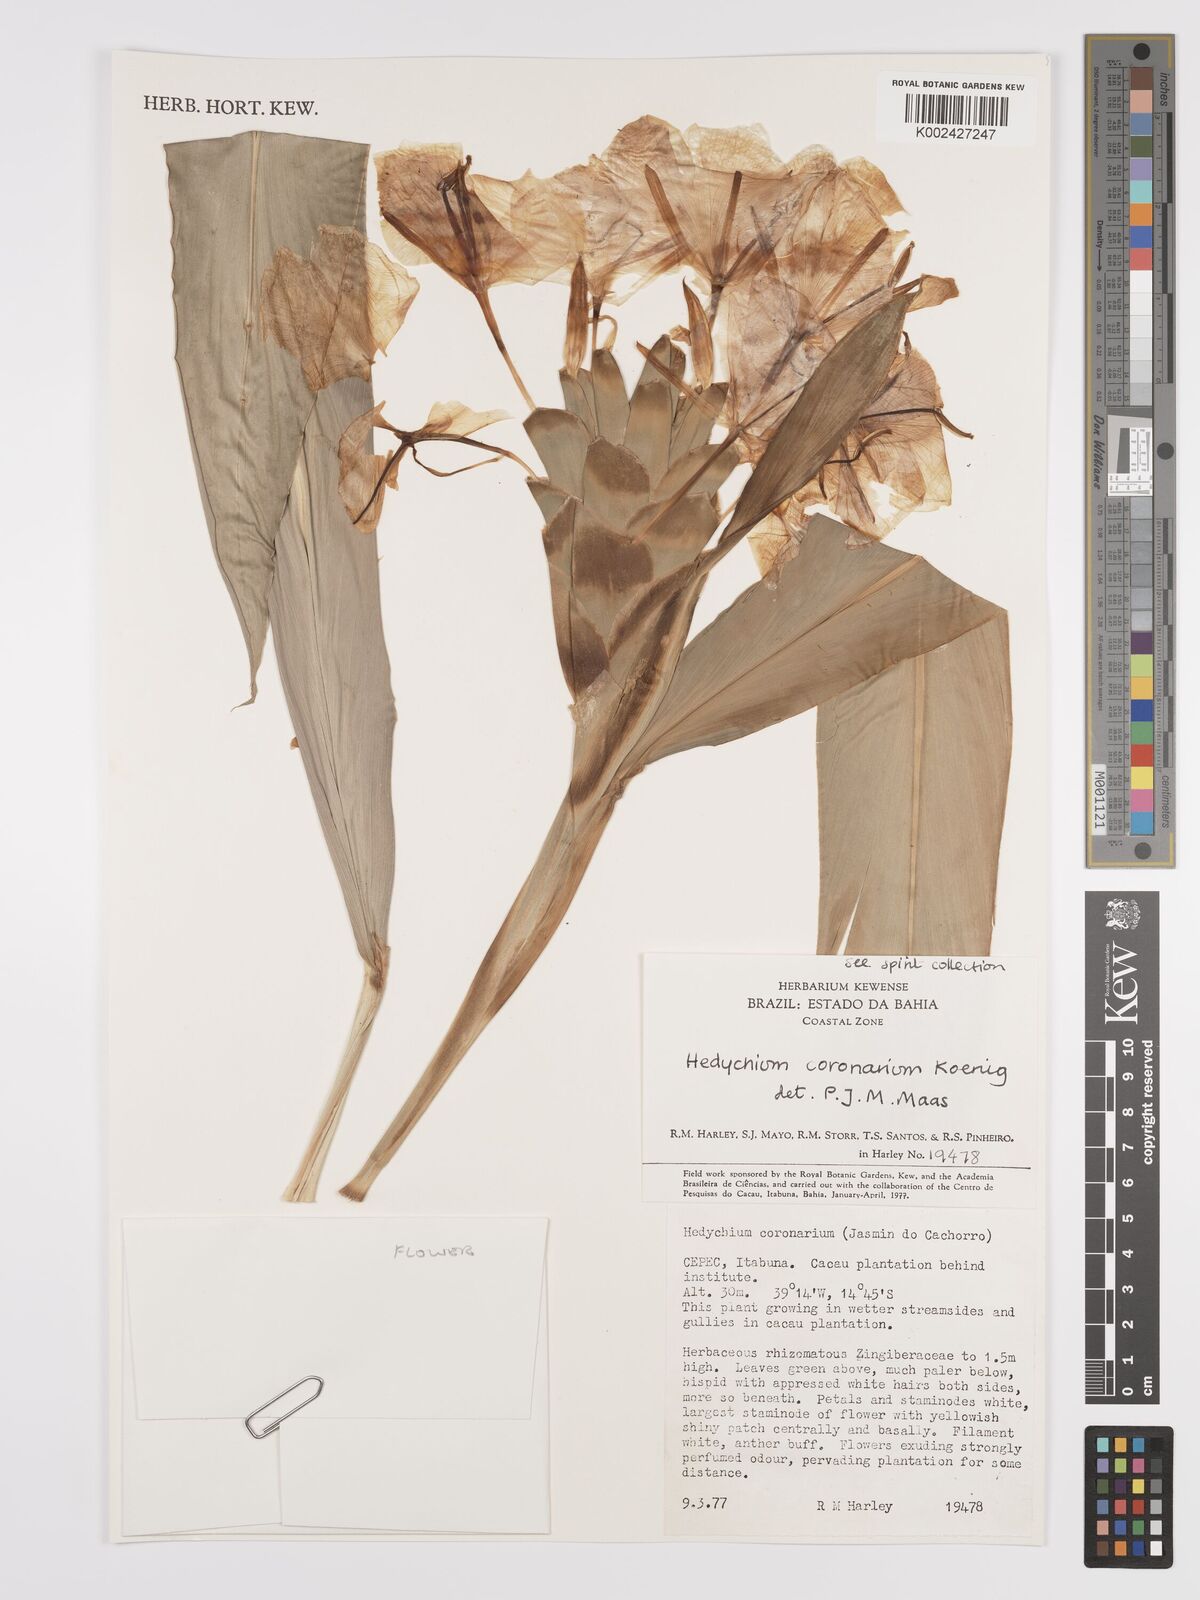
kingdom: Plantae
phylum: Tracheophyta
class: Liliopsida
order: Zingiberales
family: Zingiberaceae
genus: Hedychium
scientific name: Hedychium coronarium
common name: White garland-lily
